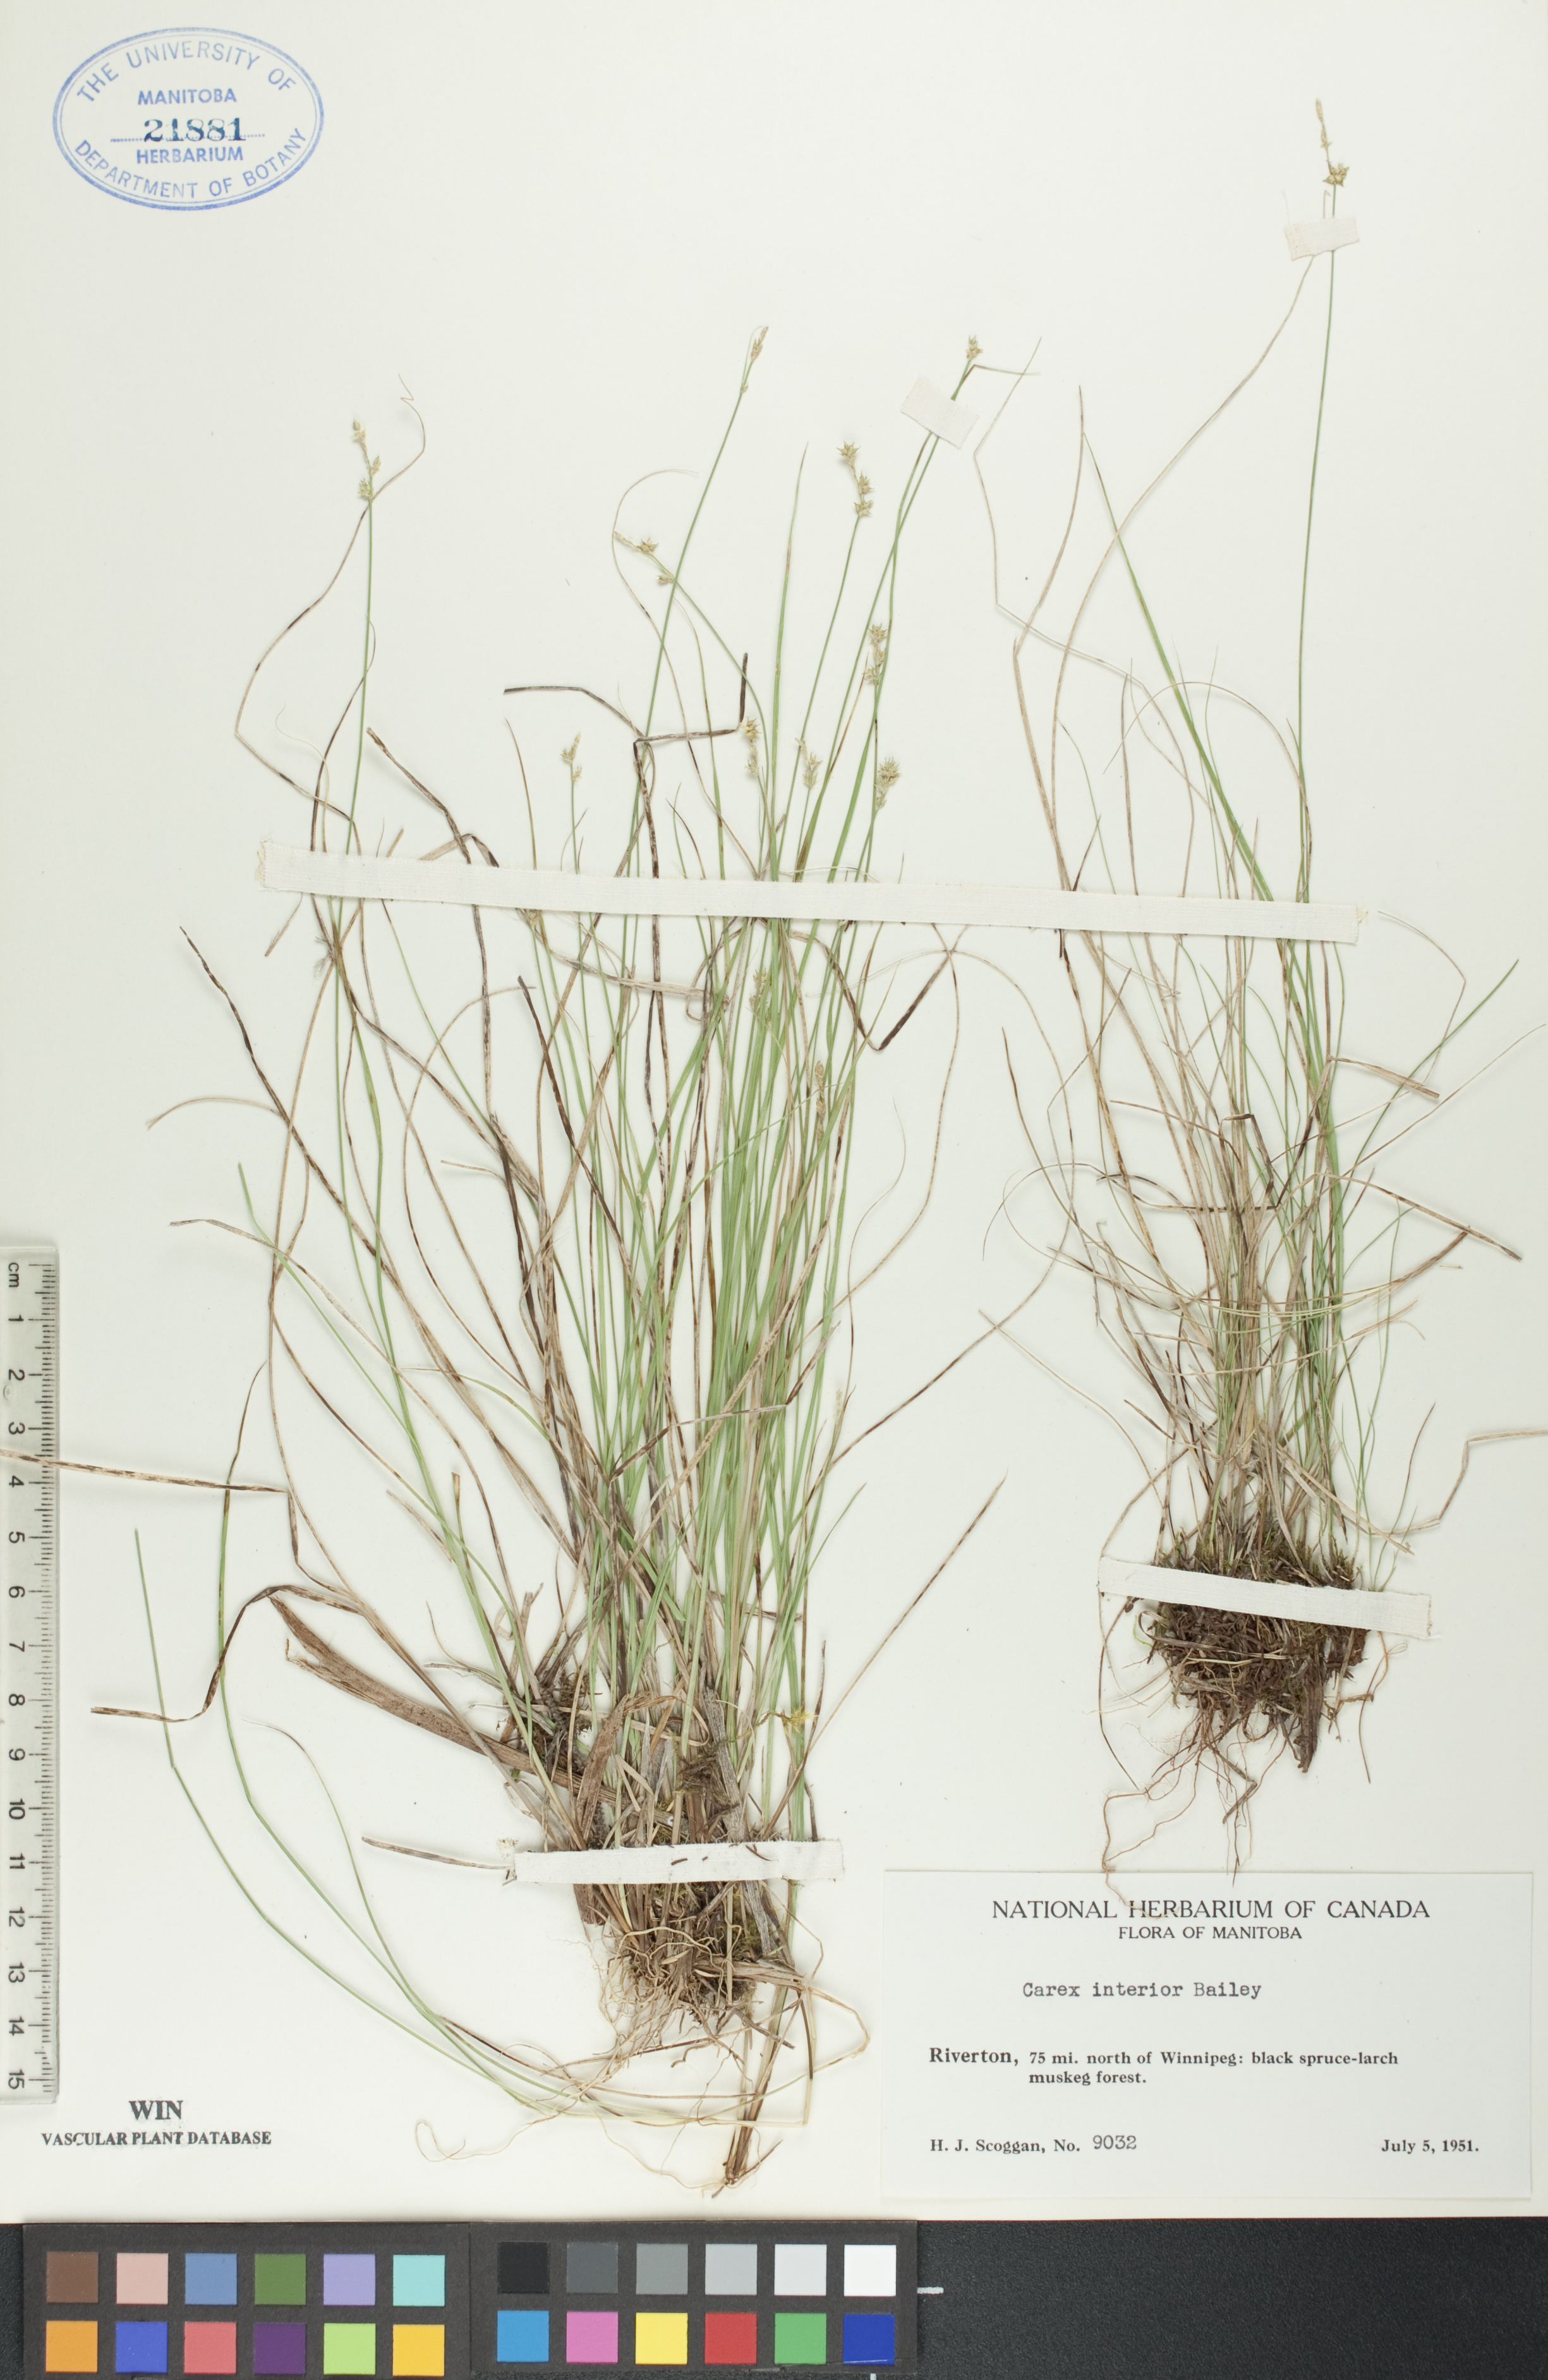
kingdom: Plantae
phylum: Tracheophyta
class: Liliopsida
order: Poales
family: Cyperaceae
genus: Carex
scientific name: Carex interior
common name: Inland sedge
